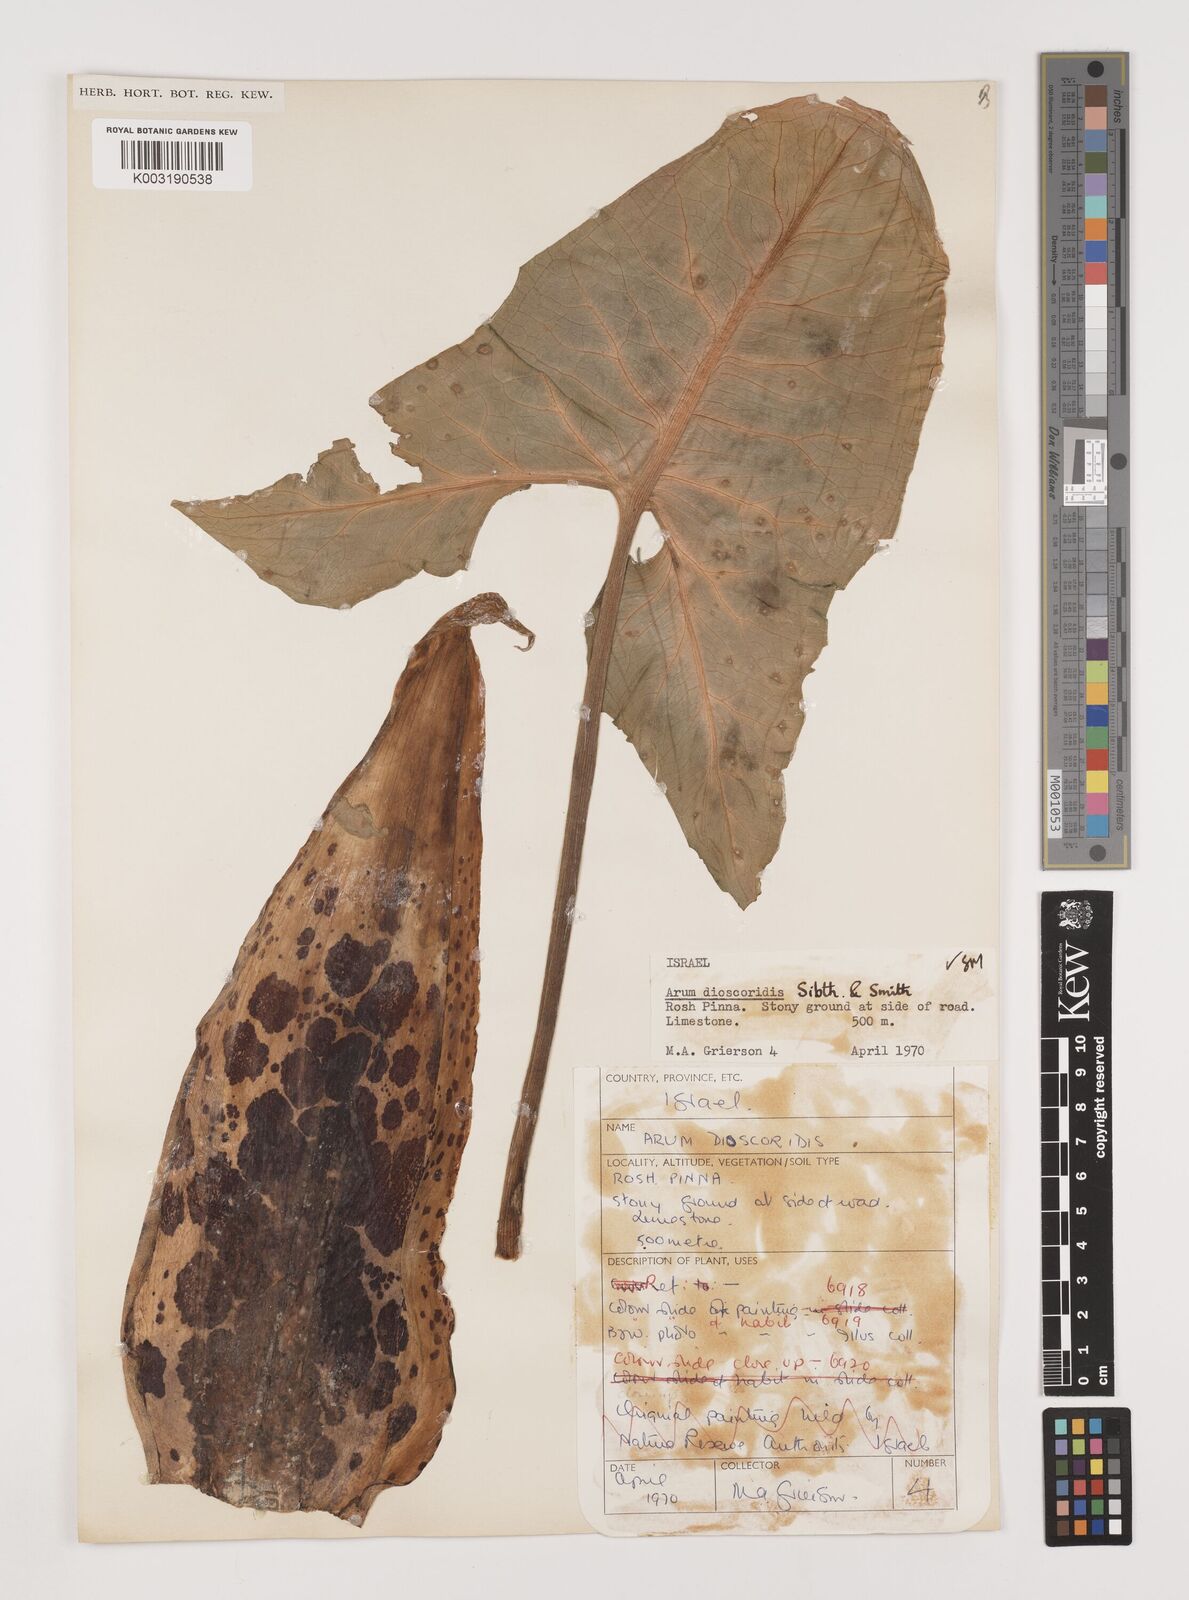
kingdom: Plantae
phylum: Tracheophyta
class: Liliopsida
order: Alismatales
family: Araceae
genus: Arum
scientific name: Arum dioscoridis
